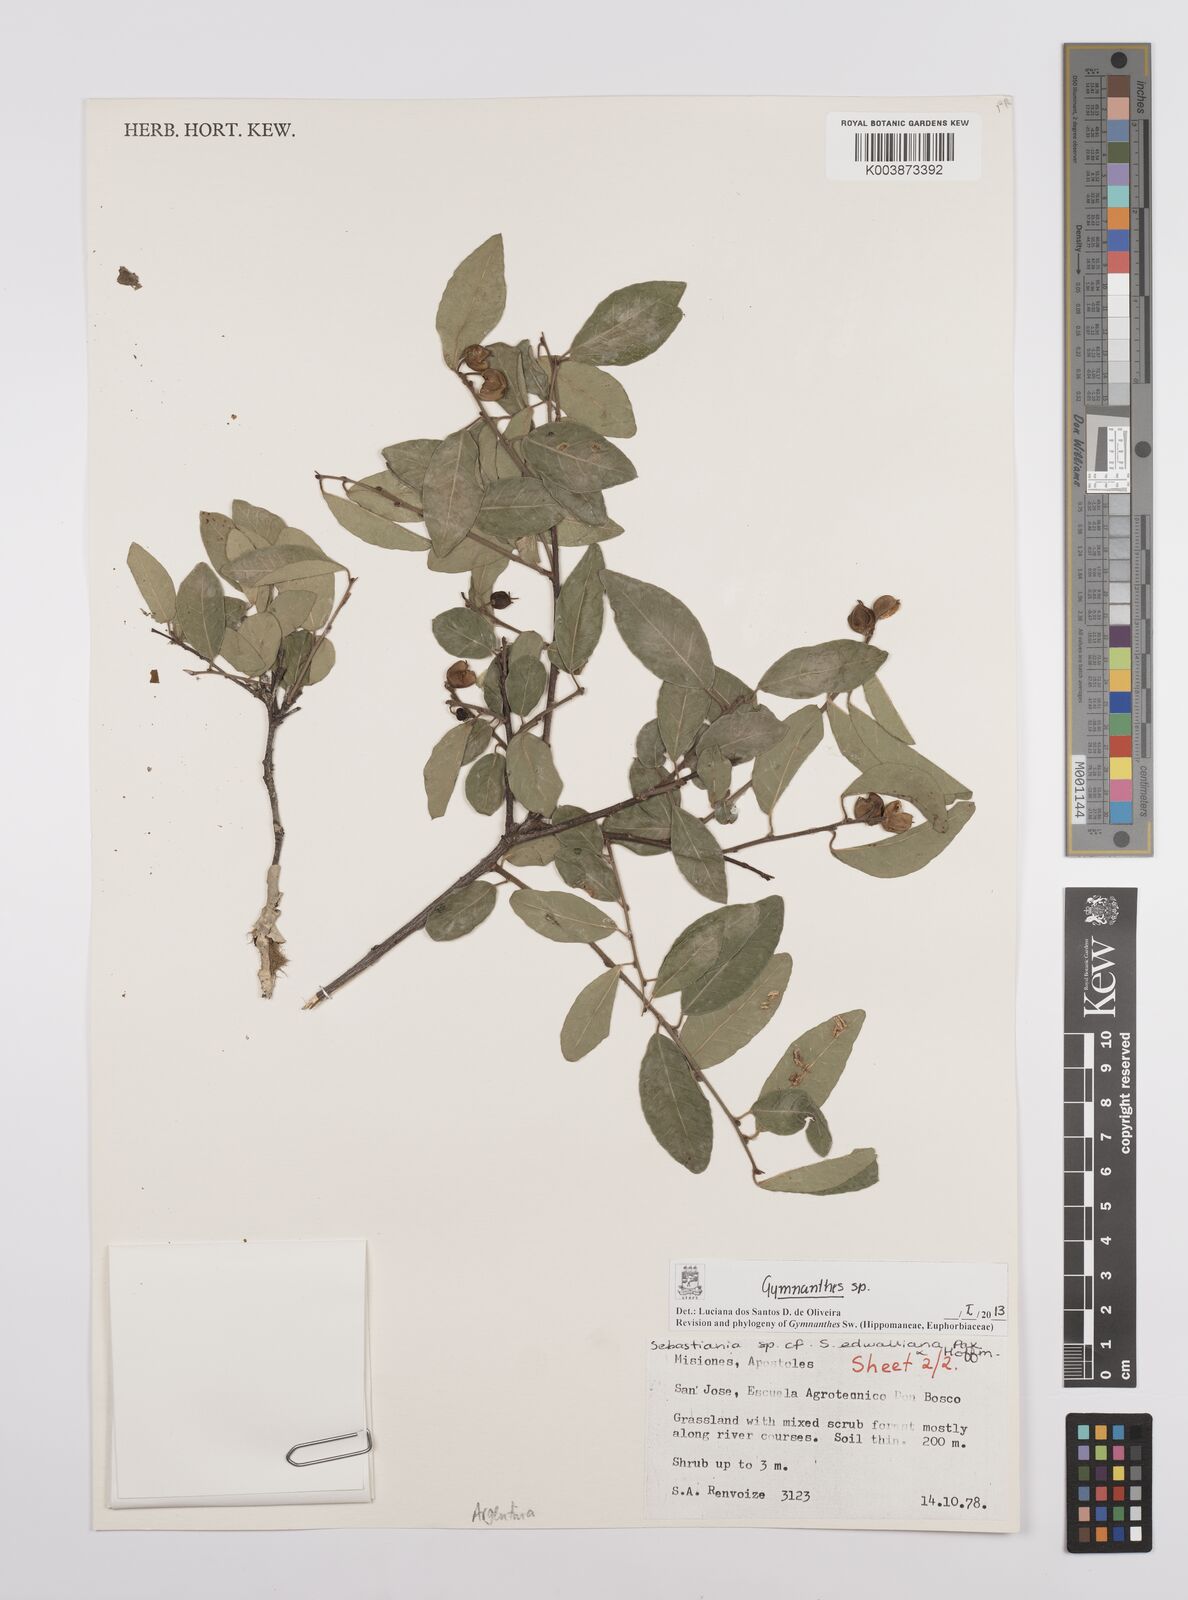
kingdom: Plantae
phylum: Tracheophyta
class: Magnoliopsida
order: Malpighiales
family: Euphorbiaceae
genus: Gymnanthes
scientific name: Gymnanthes
